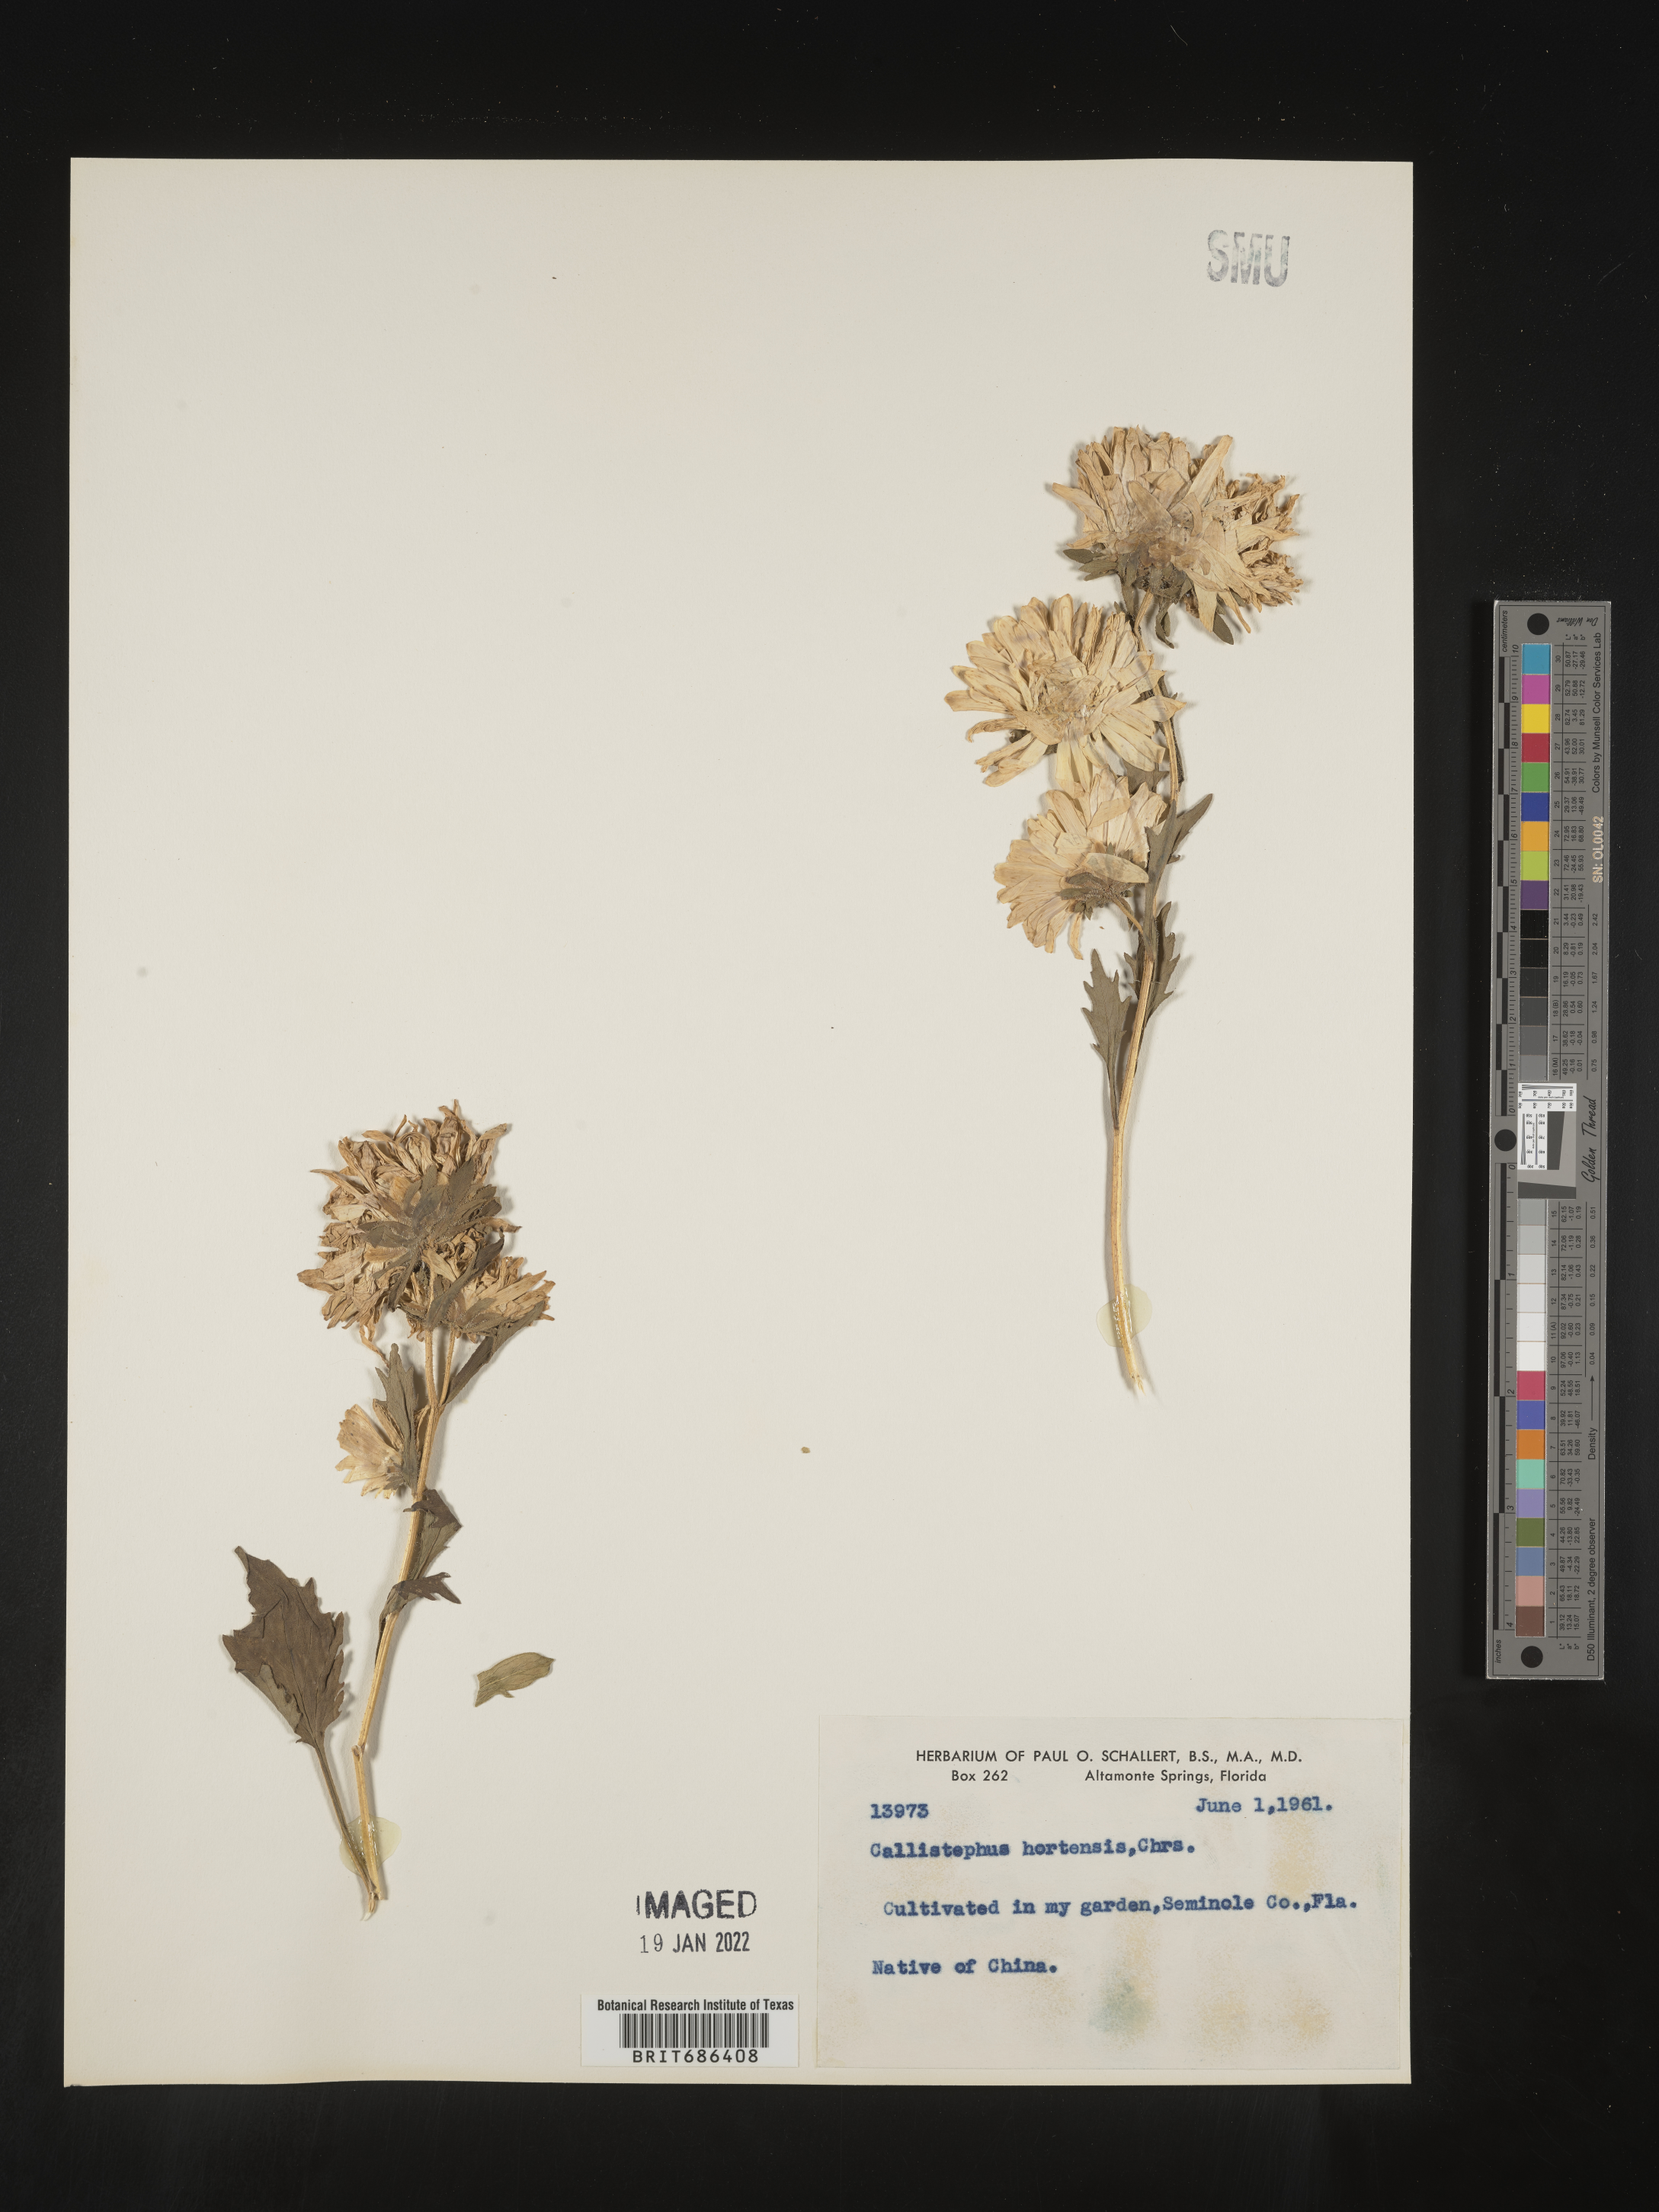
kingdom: Plantae
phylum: Tracheophyta
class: Magnoliopsida
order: Asterales
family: Asteraceae
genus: Callistephus
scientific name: Callistephus
